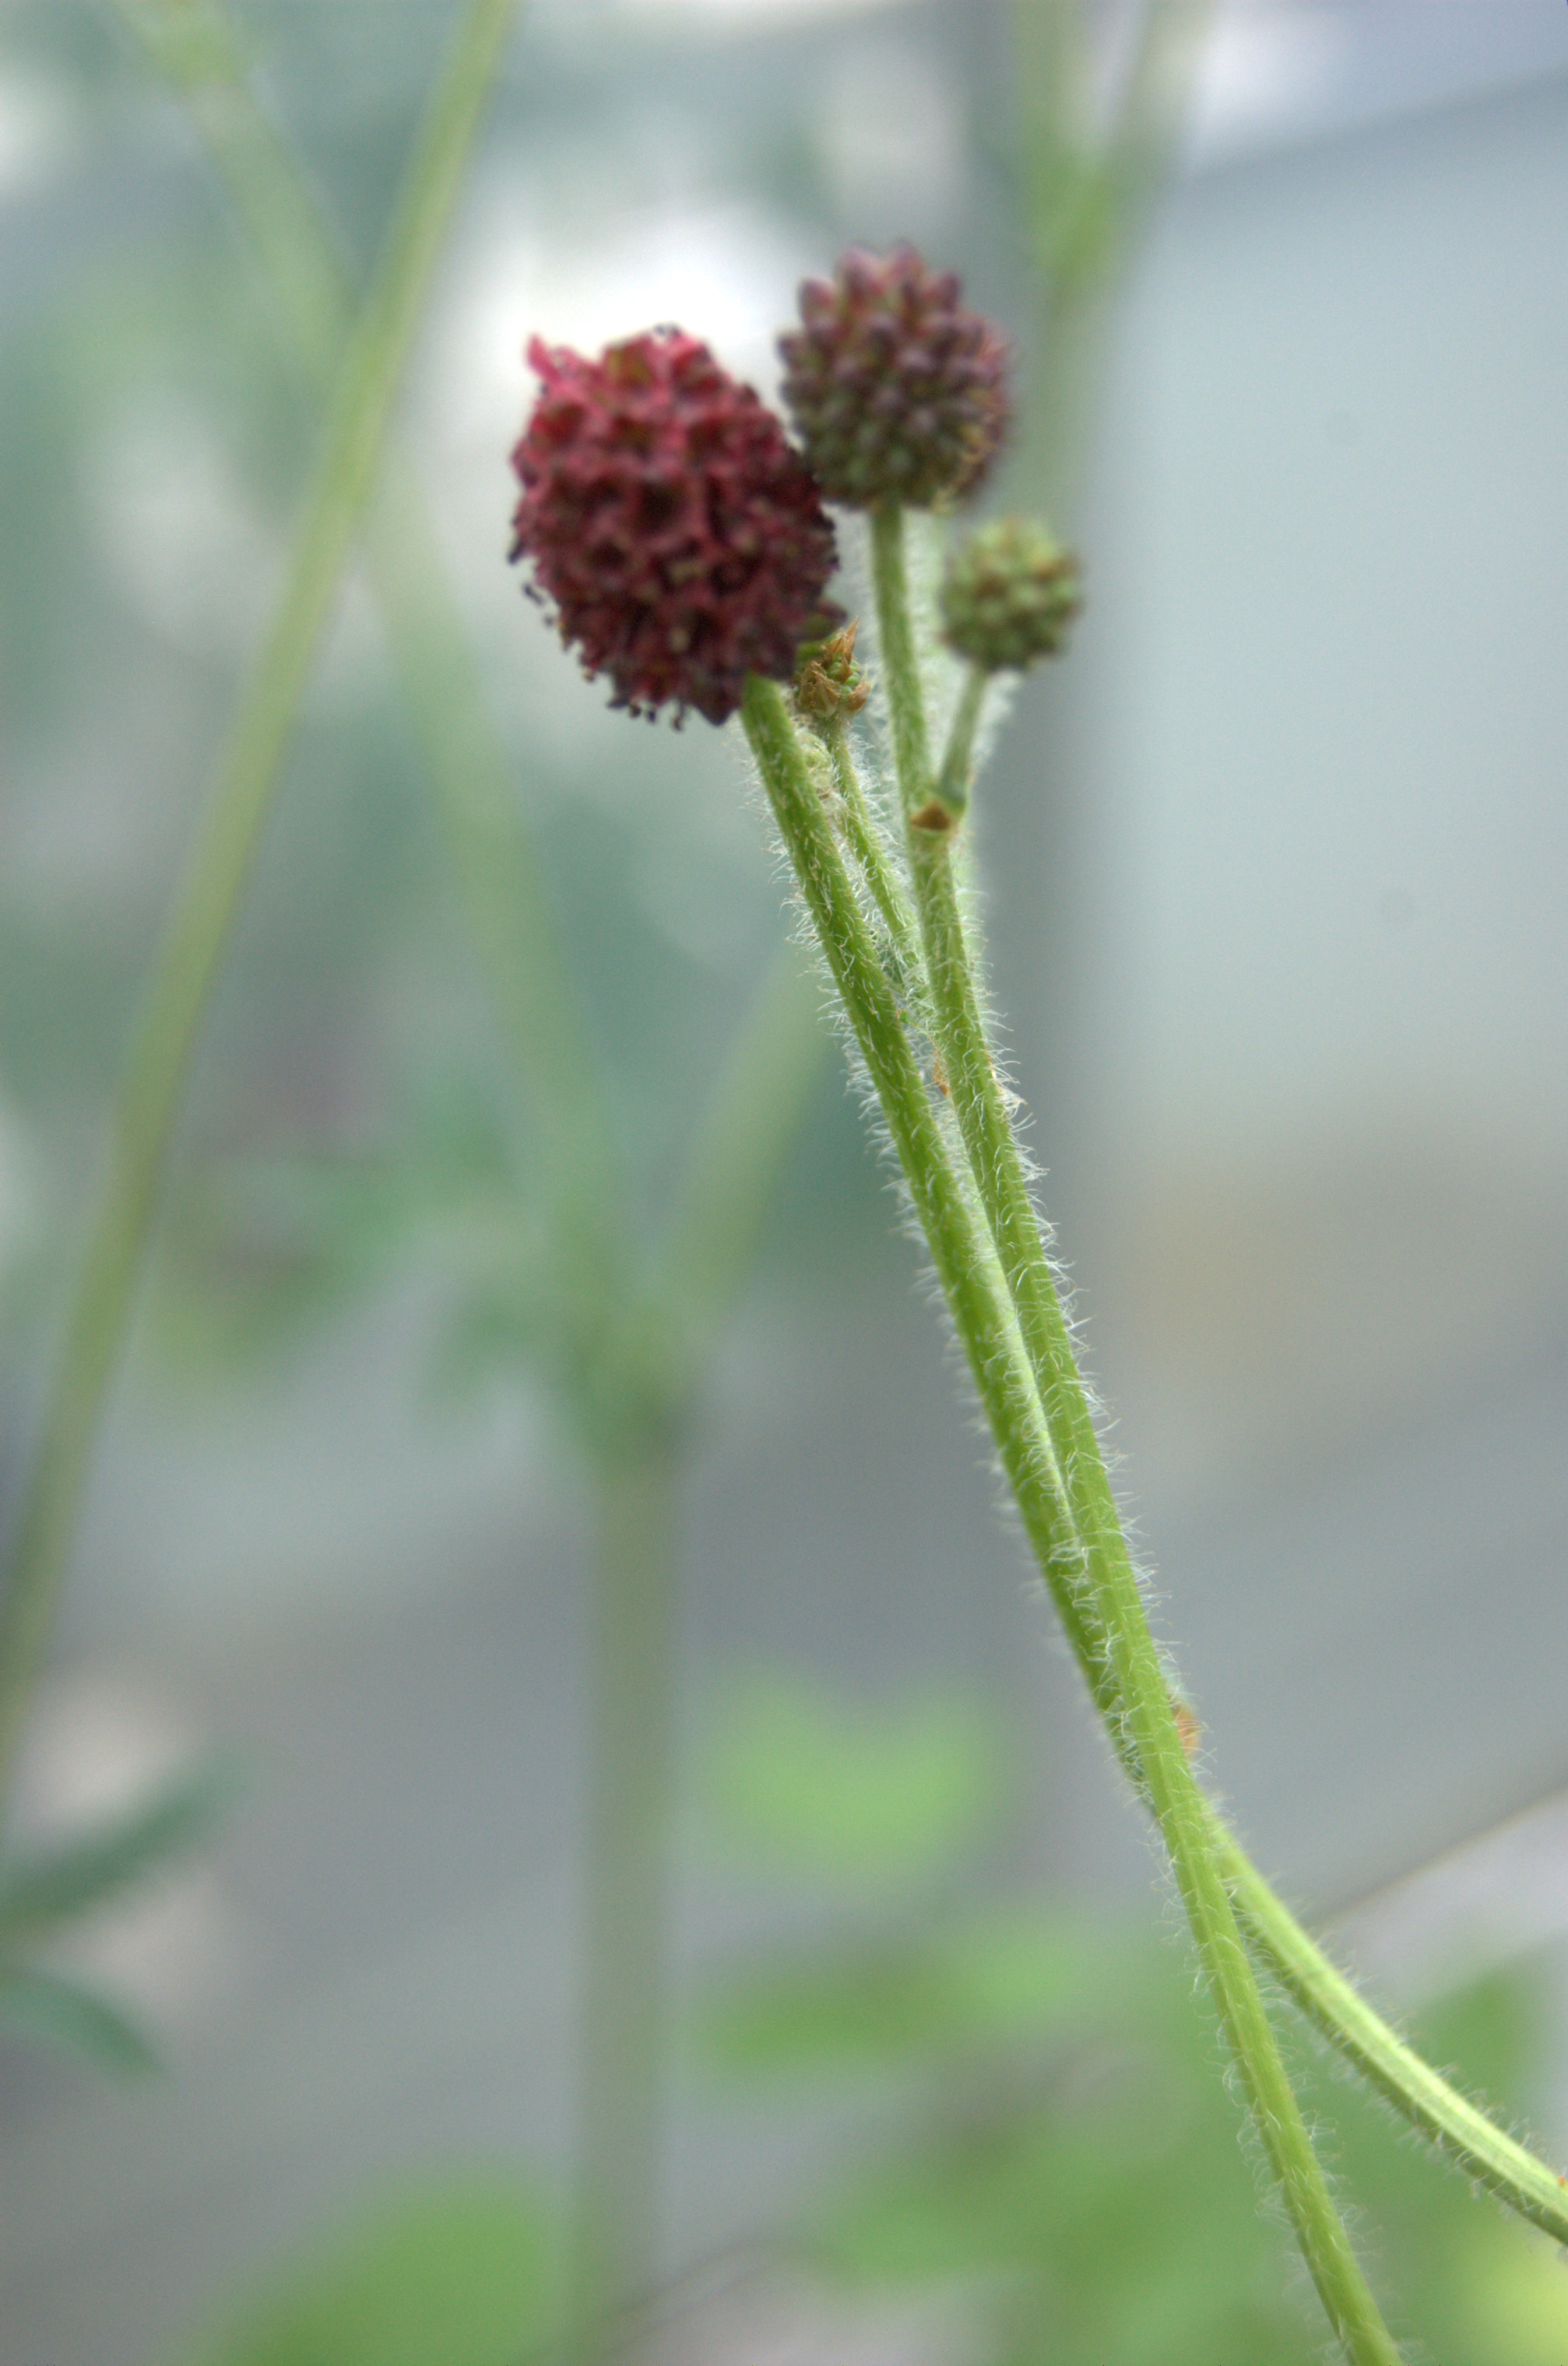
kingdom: Plantae
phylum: Tracheophyta
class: Magnoliopsida
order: Rosales
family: Rosaceae
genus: Sanguisorba
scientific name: Sanguisorba officinalis
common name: Great burnet
